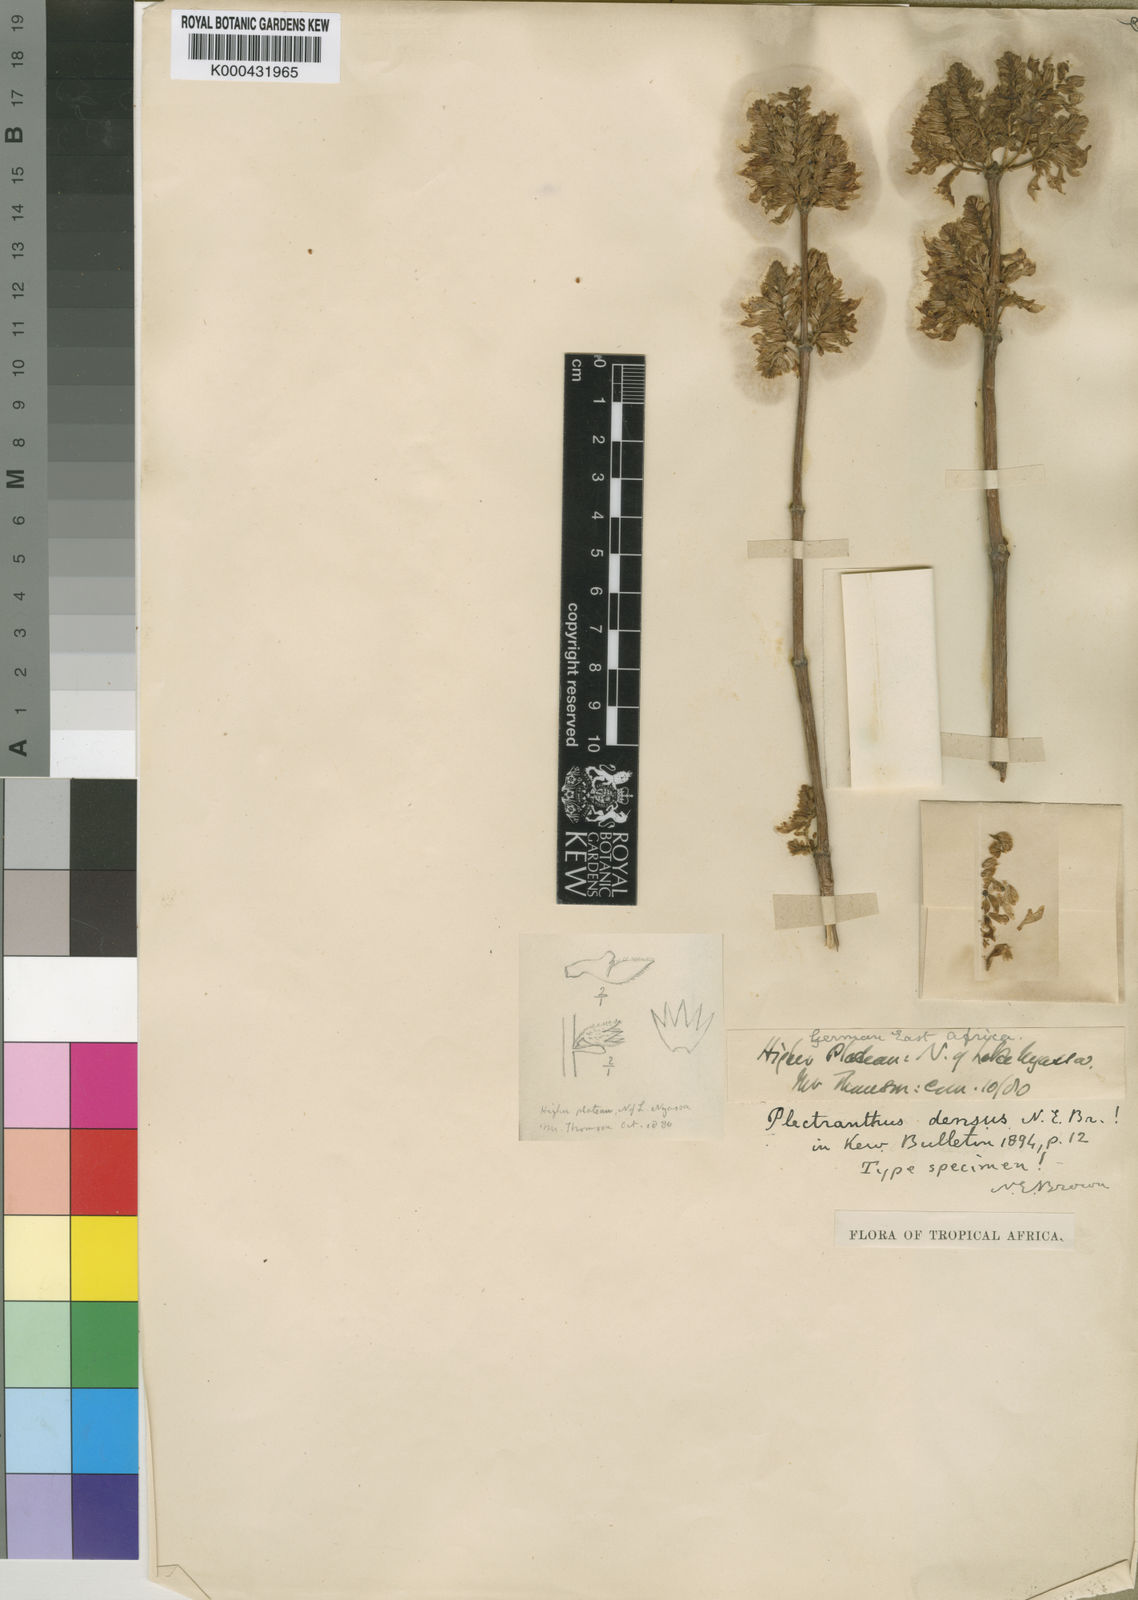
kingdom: Plantae
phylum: Tracheophyta
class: Magnoliopsida
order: Lamiales
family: Lamiaceae
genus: Coleus
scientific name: Coleus densus
